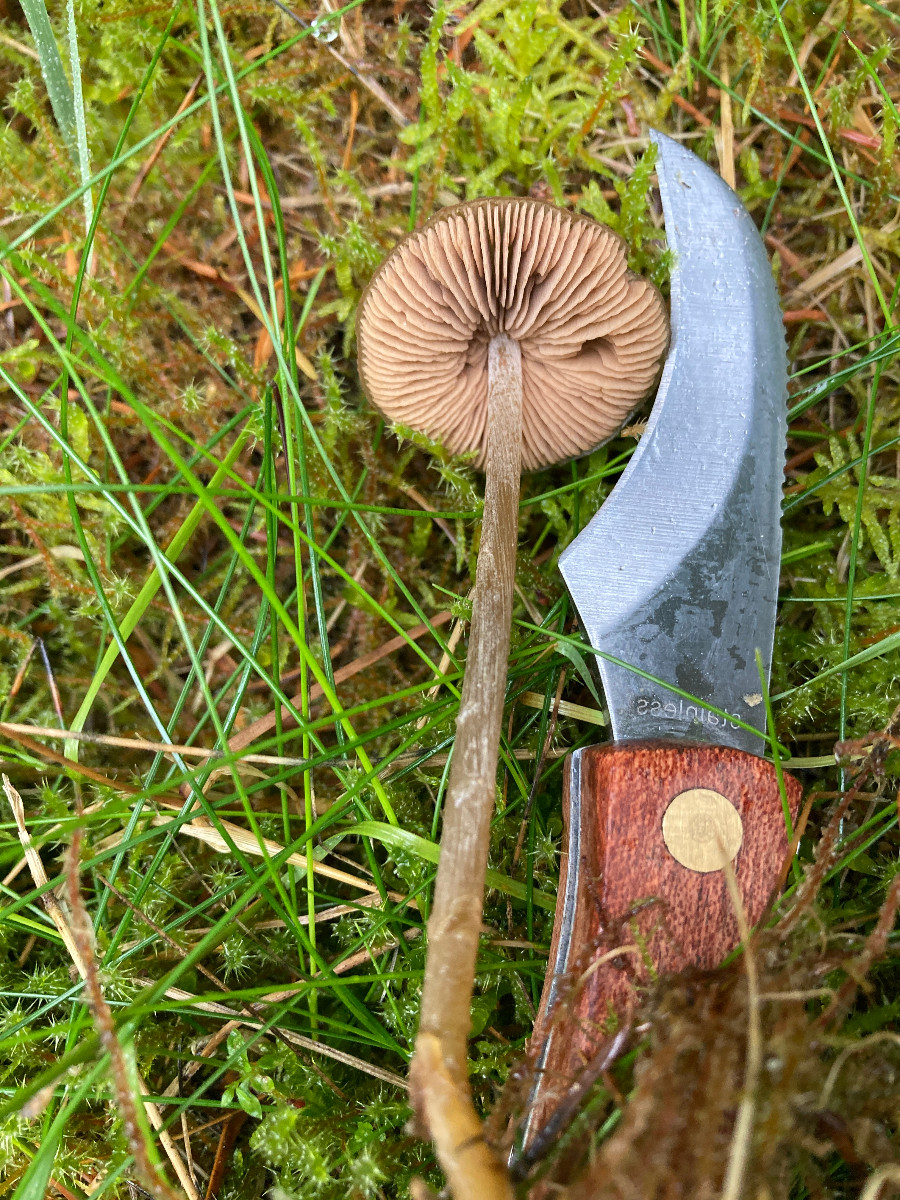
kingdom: Fungi
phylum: Basidiomycota
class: Agaricomycetes
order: Agaricales
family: Entolomataceae
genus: Entoloma
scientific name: Entoloma
